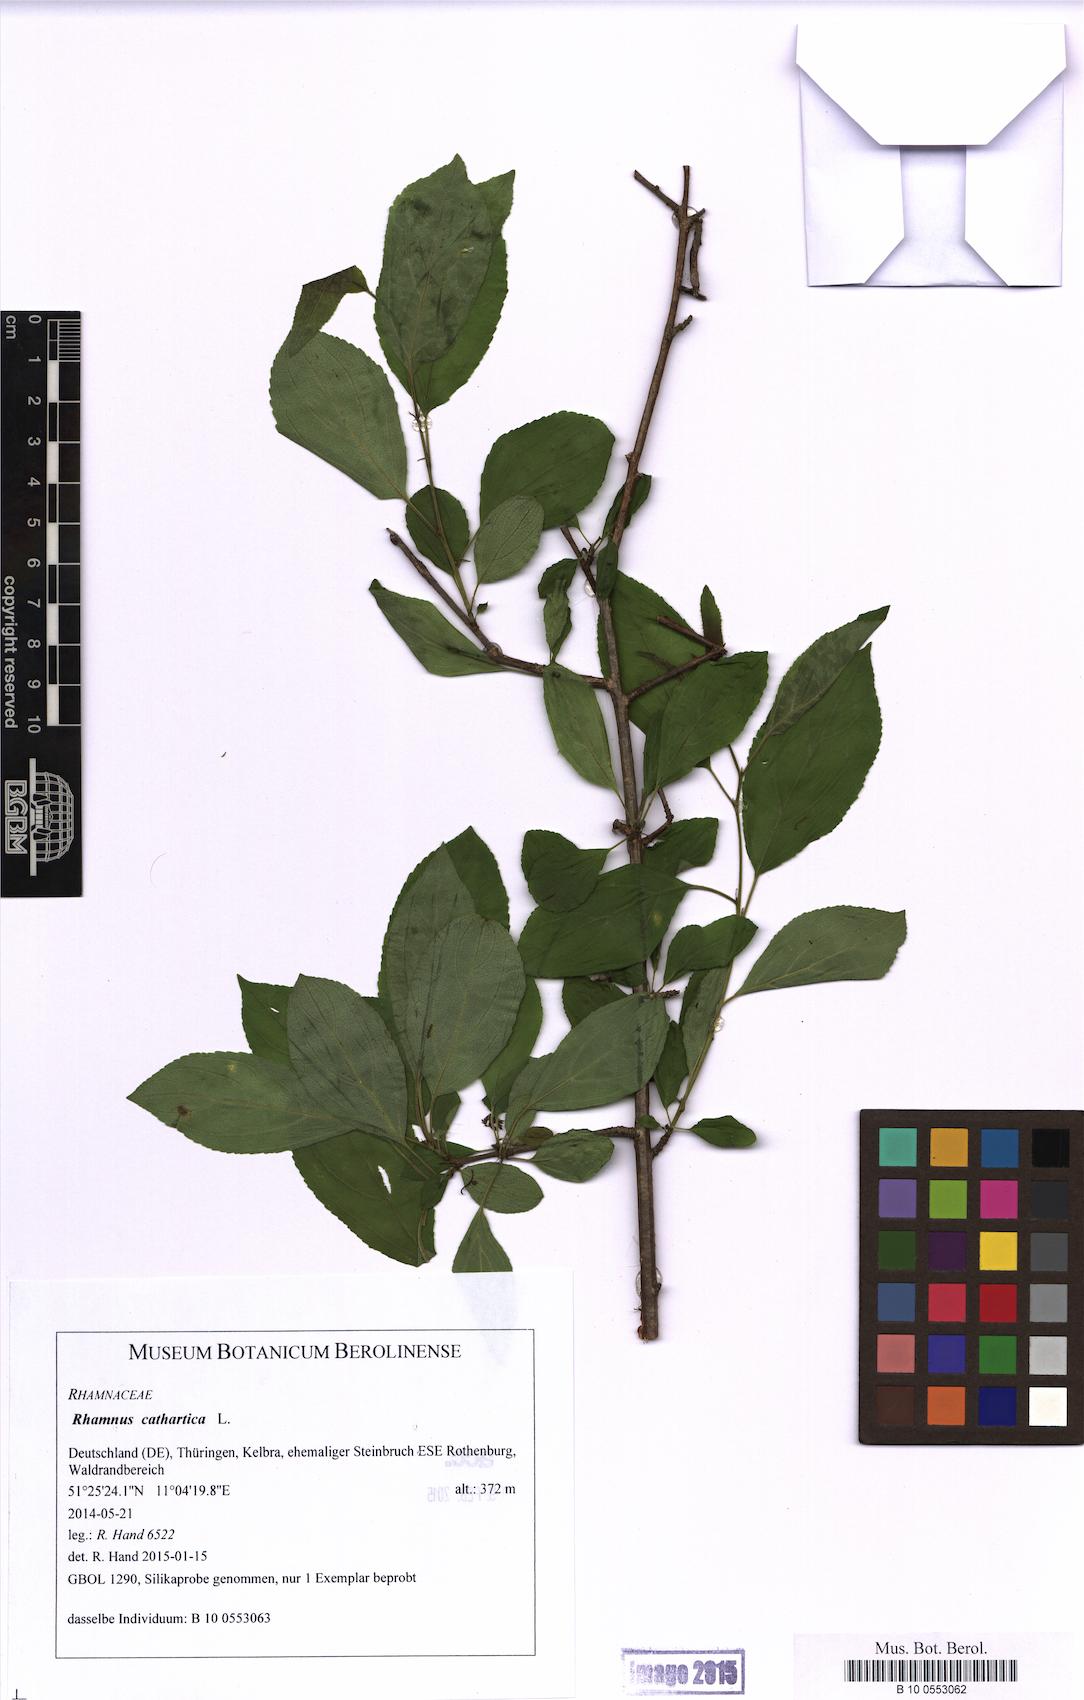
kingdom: Plantae
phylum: Tracheophyta
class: Magnoliopsida
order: Rosales
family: Rhamnaceae
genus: Rhamnus
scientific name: Rhamnus cathartica
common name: Common buckthorn
